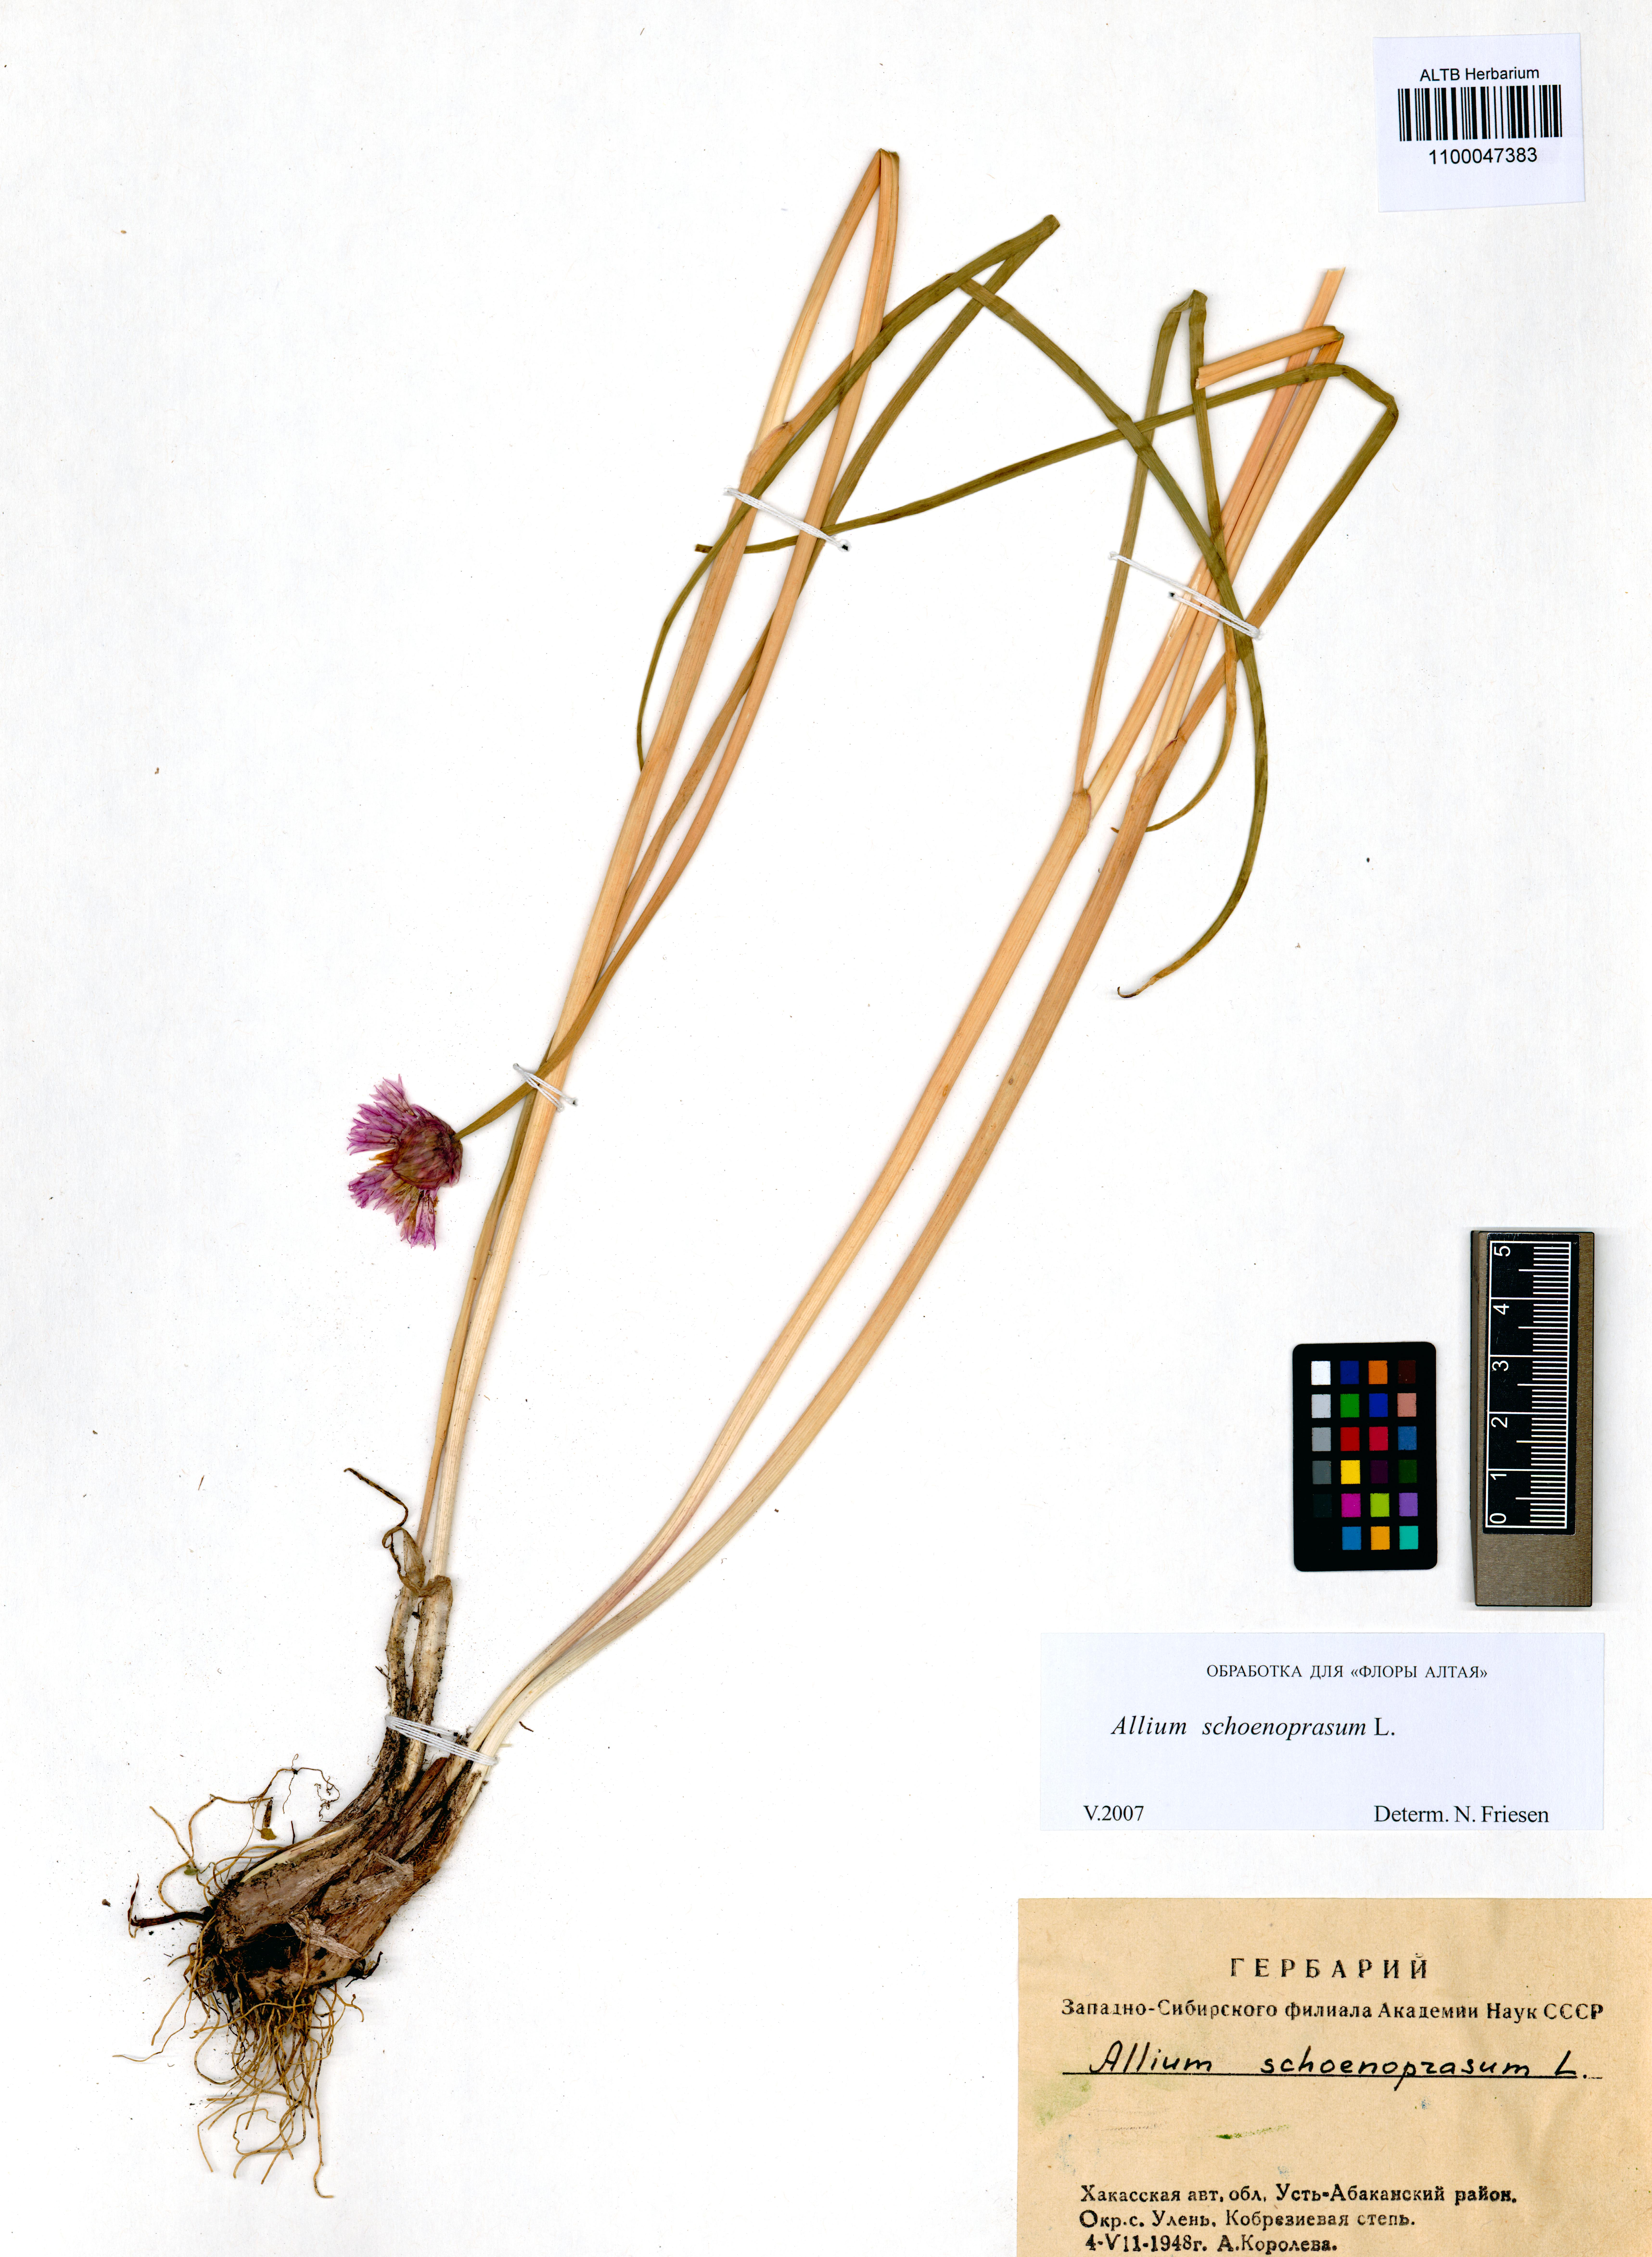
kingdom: Plantae
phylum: Tracheophyta
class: Liliopsida
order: Asparagales
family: Amaryllidaceae
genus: Allium
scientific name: Allium schoenoprasum
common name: Chives
